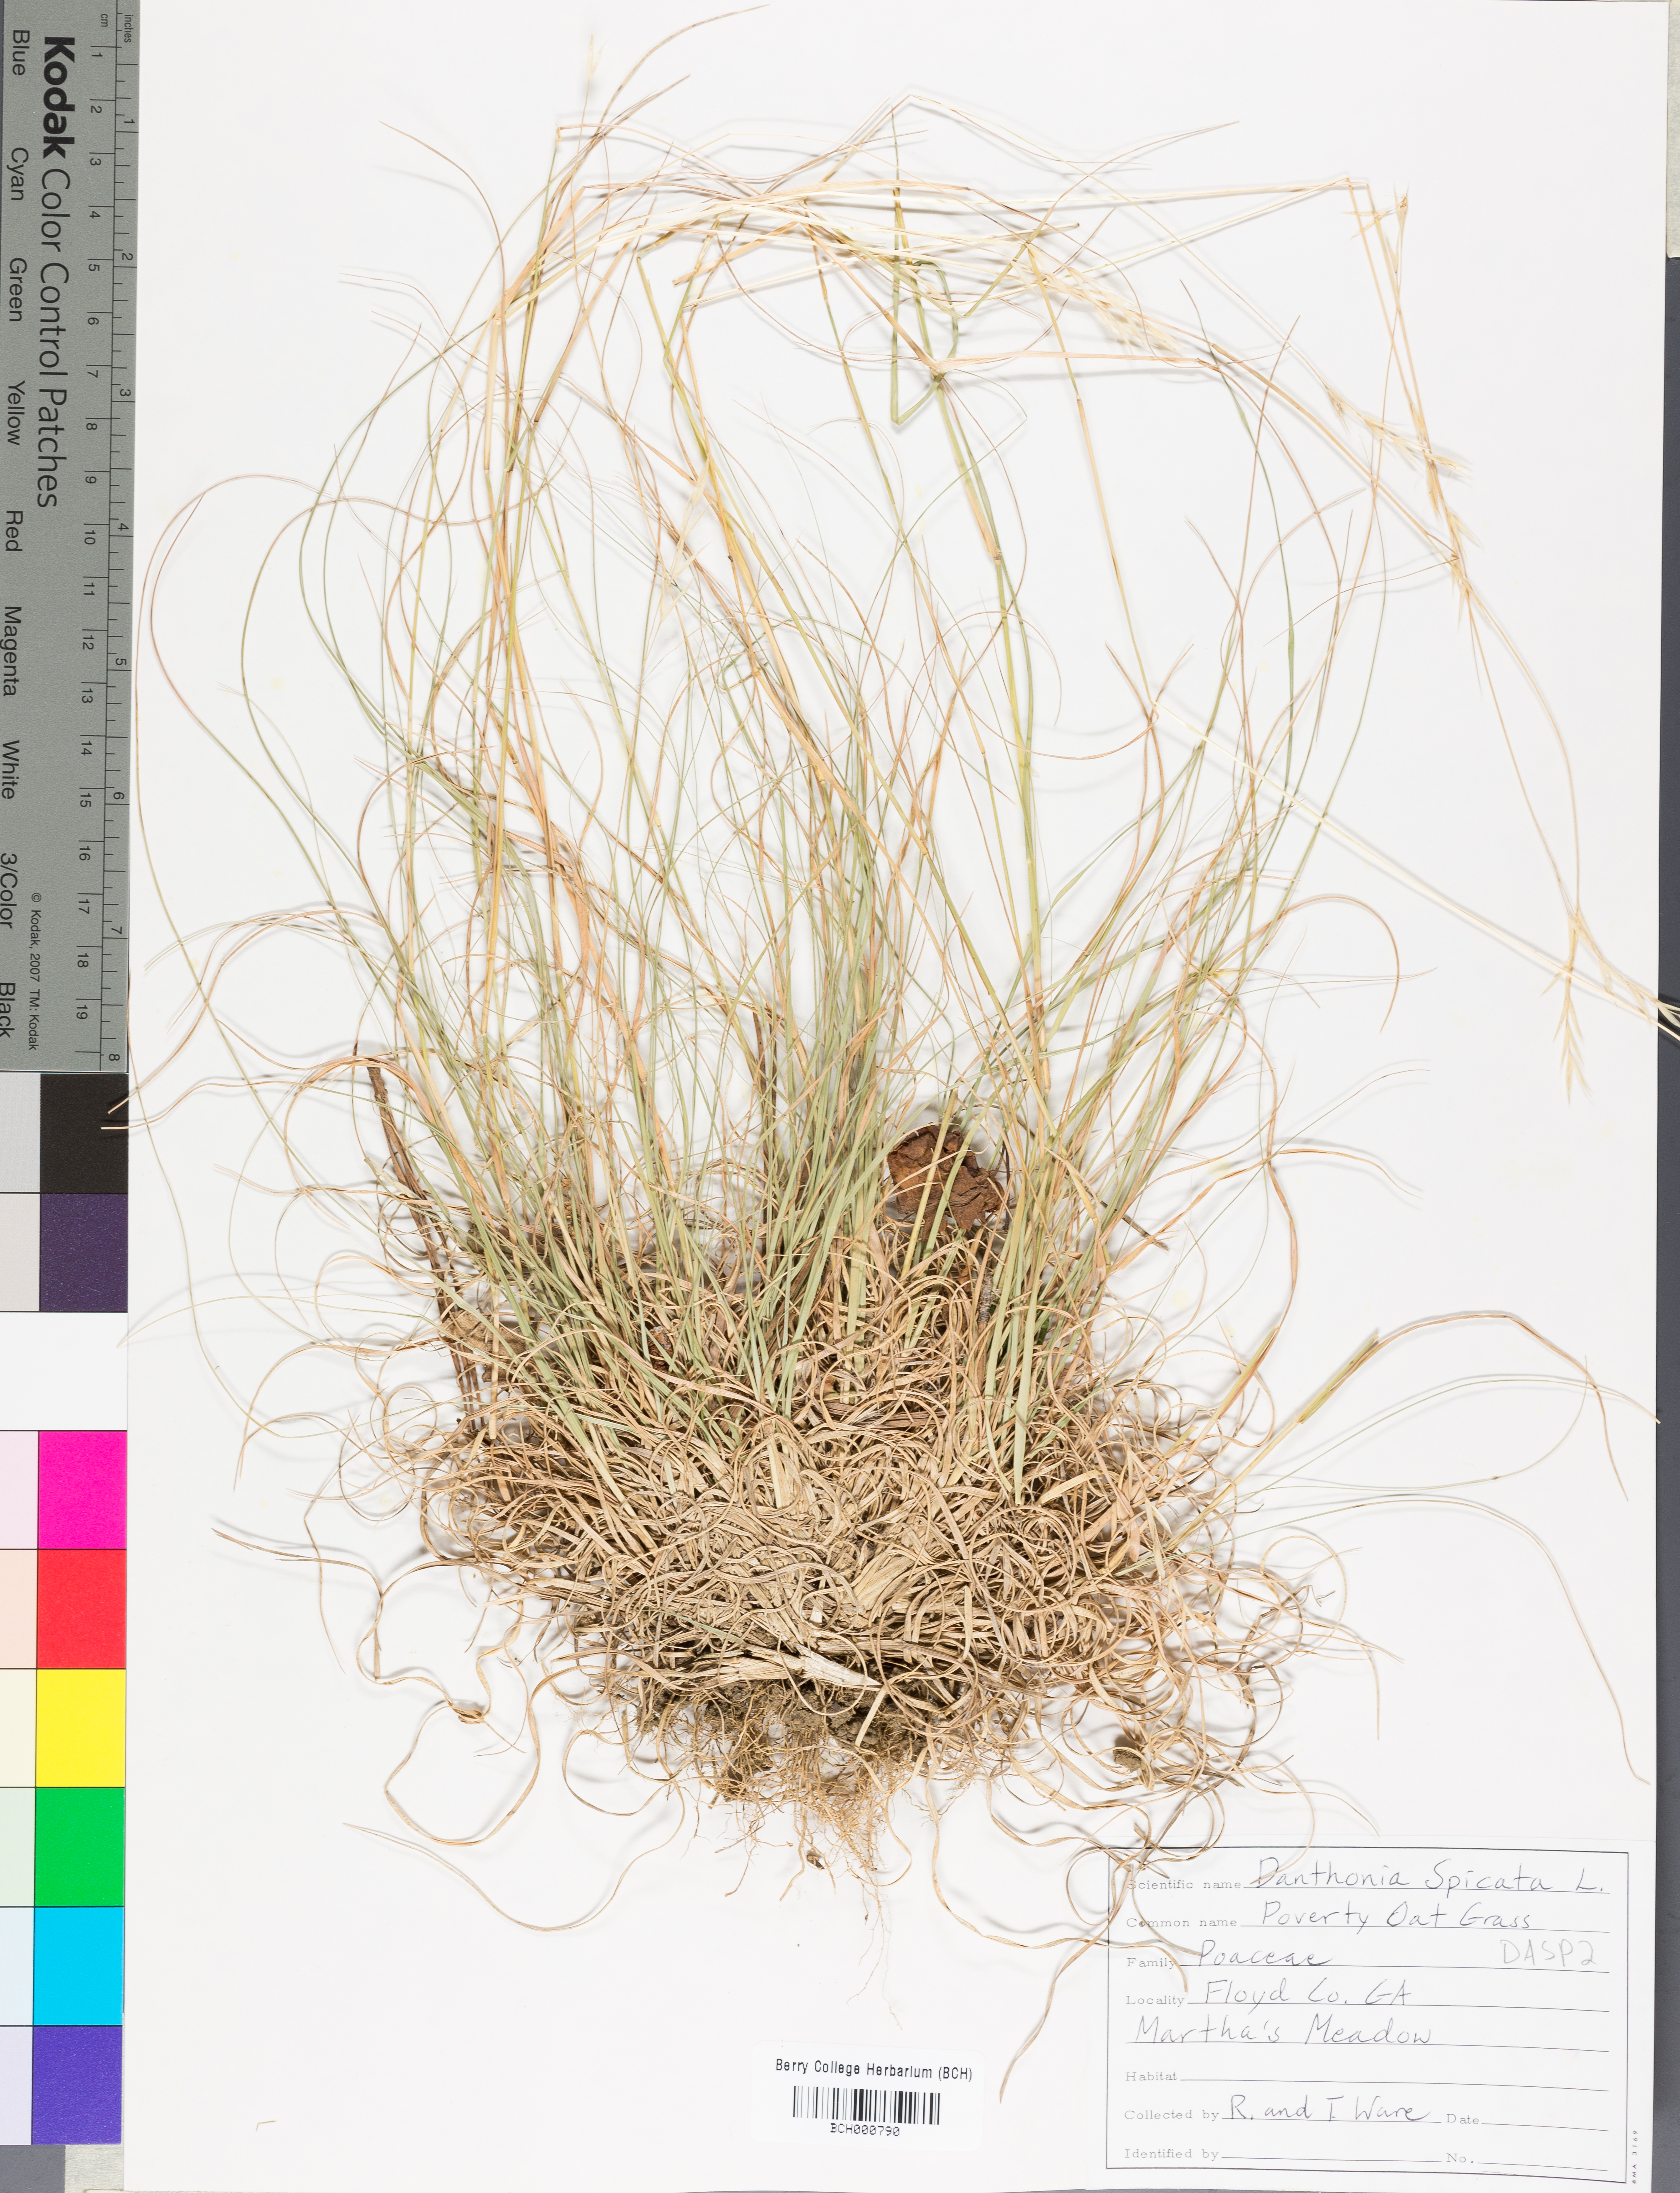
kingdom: Plantae
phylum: Tracheophyta
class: Liliopsida
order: Poales
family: Poaceae
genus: Danthonia
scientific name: Danthonia spicata
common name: Common wild oatgrass
